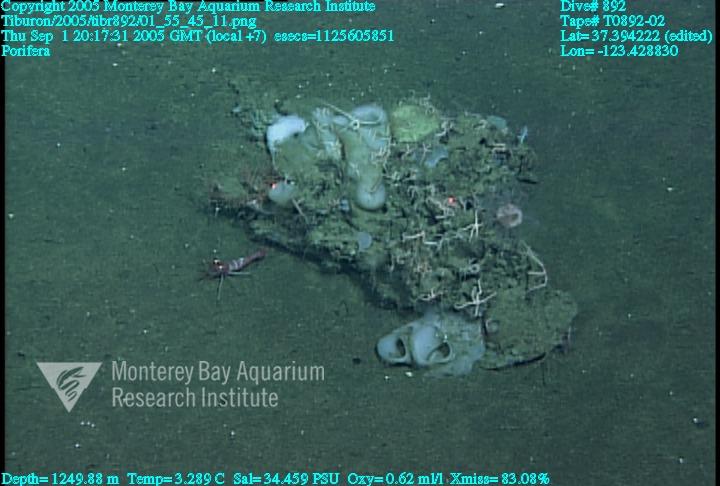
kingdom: Animalia
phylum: Porifera
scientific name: Porifera
